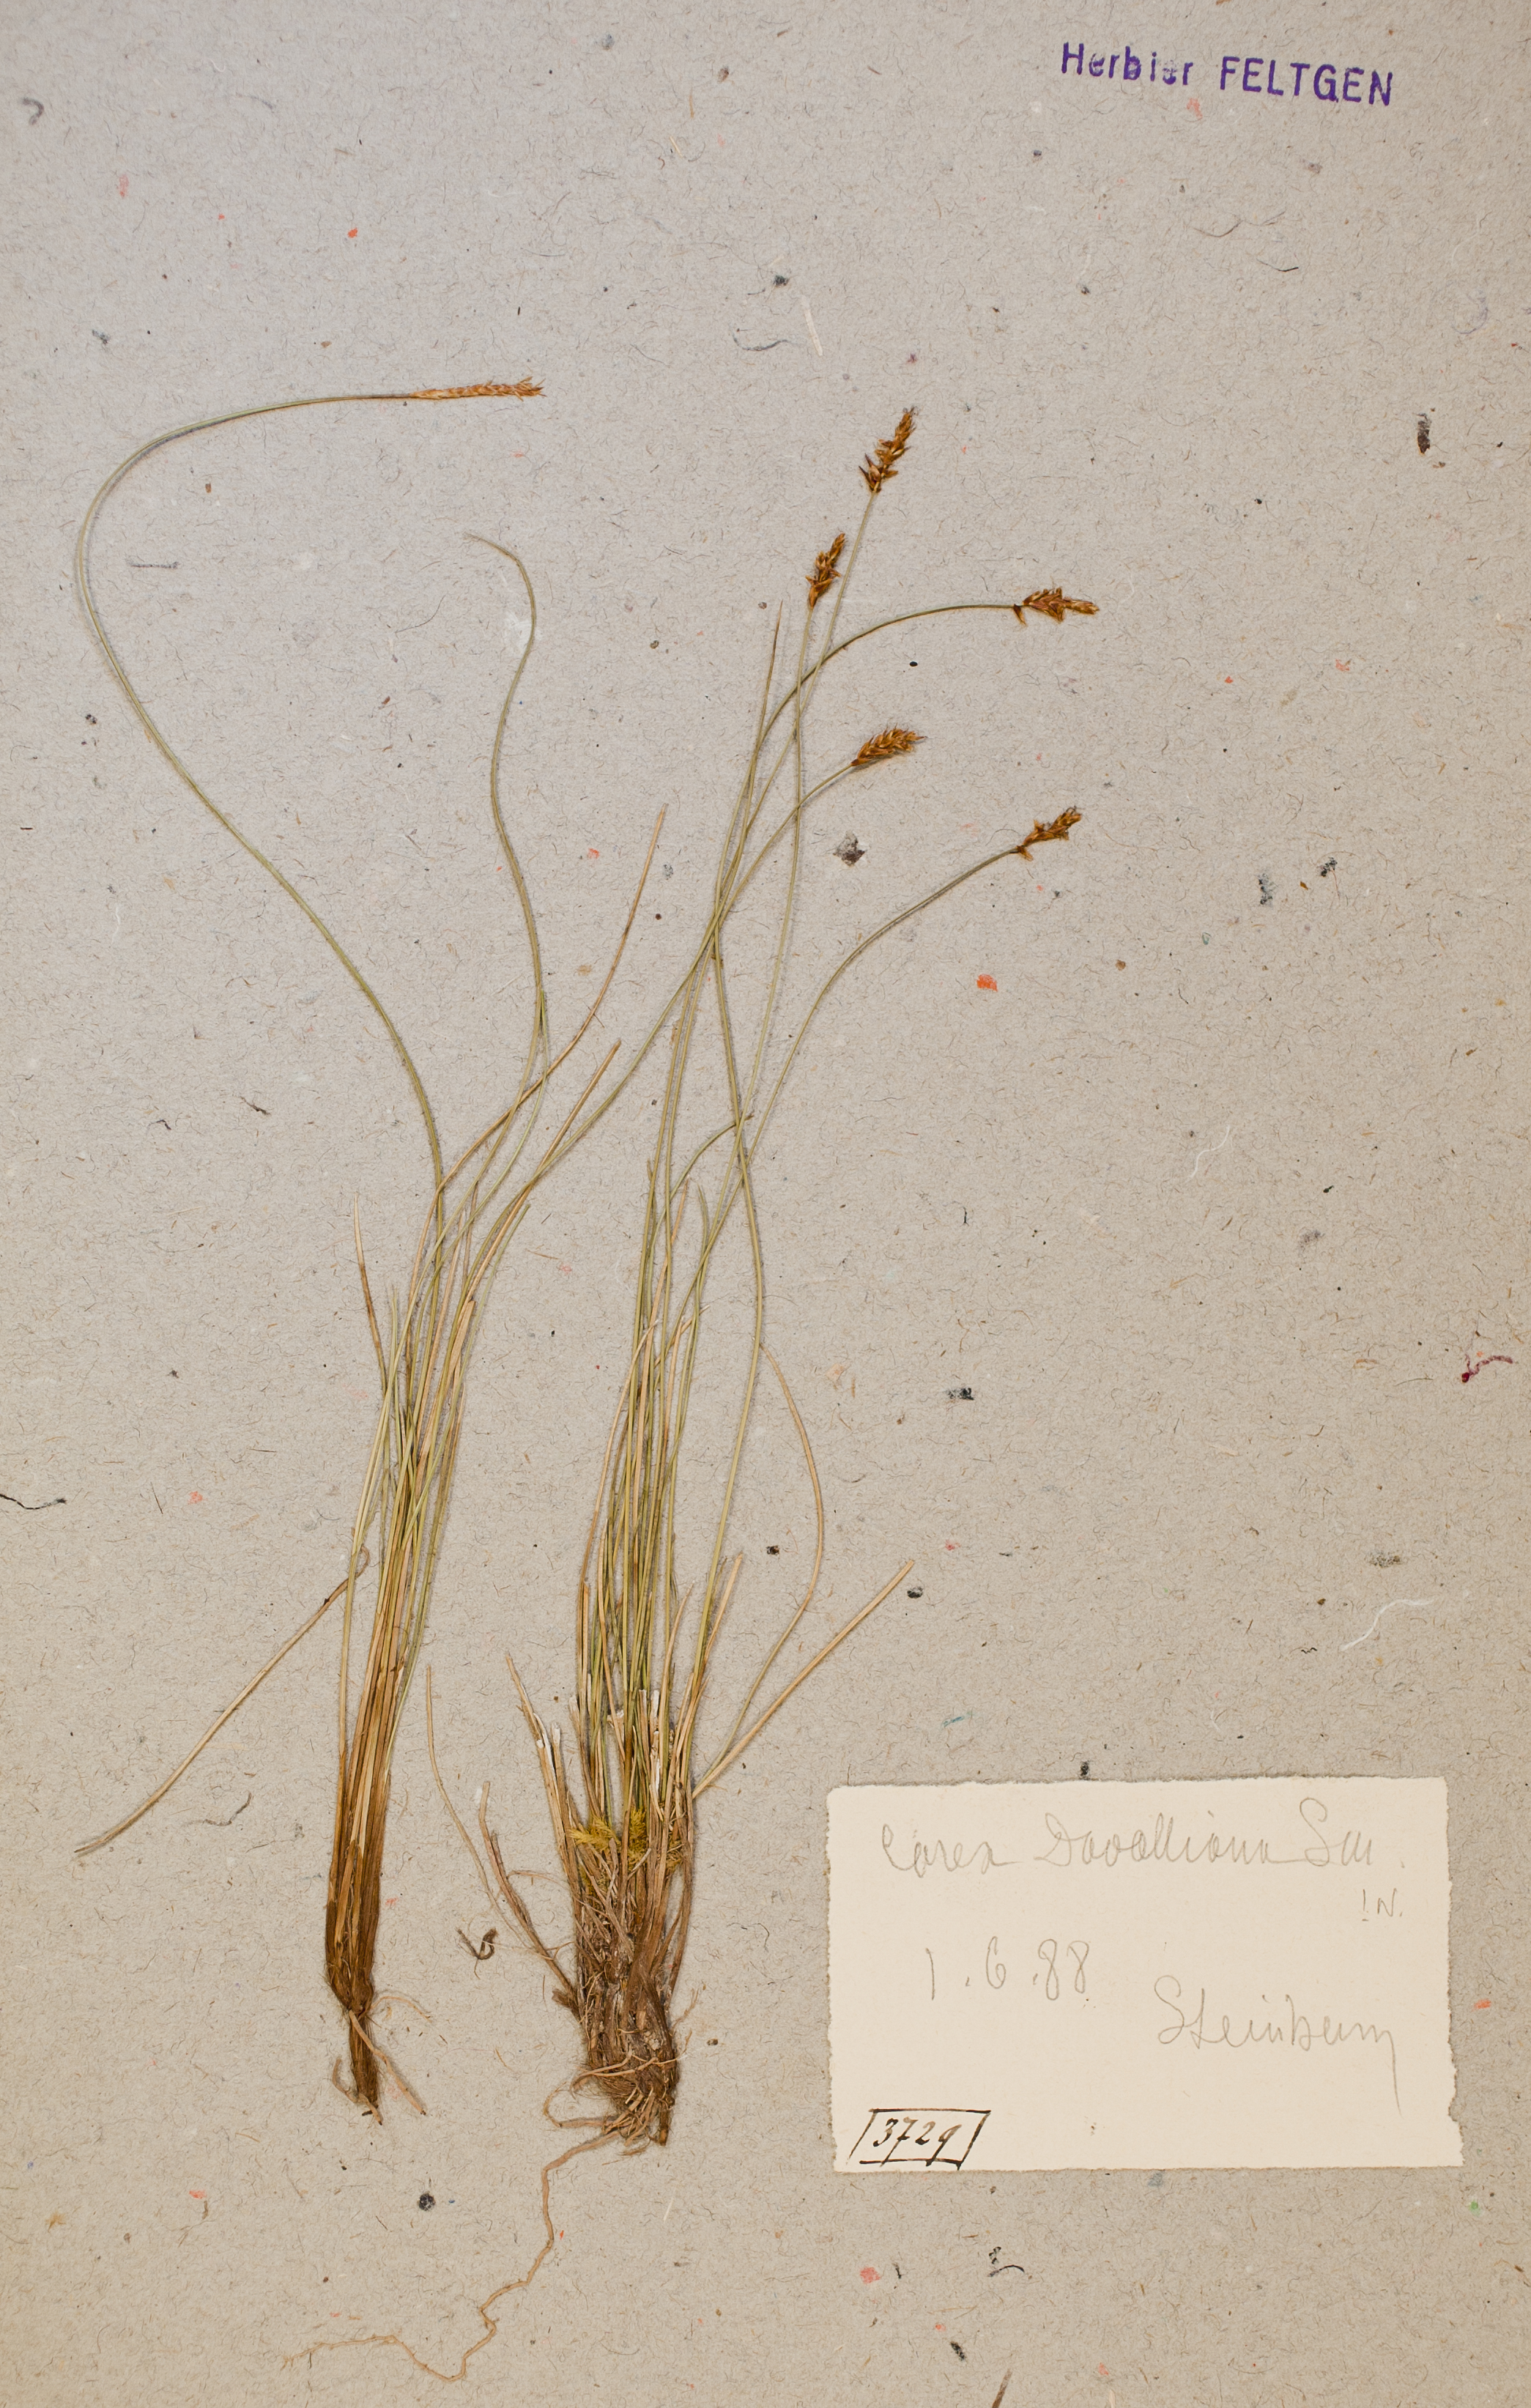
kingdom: Plantae
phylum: Tracheophyta
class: Liliopsida
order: Poales
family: Cyperaceae
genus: Carex
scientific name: Carex davalliana
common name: Davall's sedge
